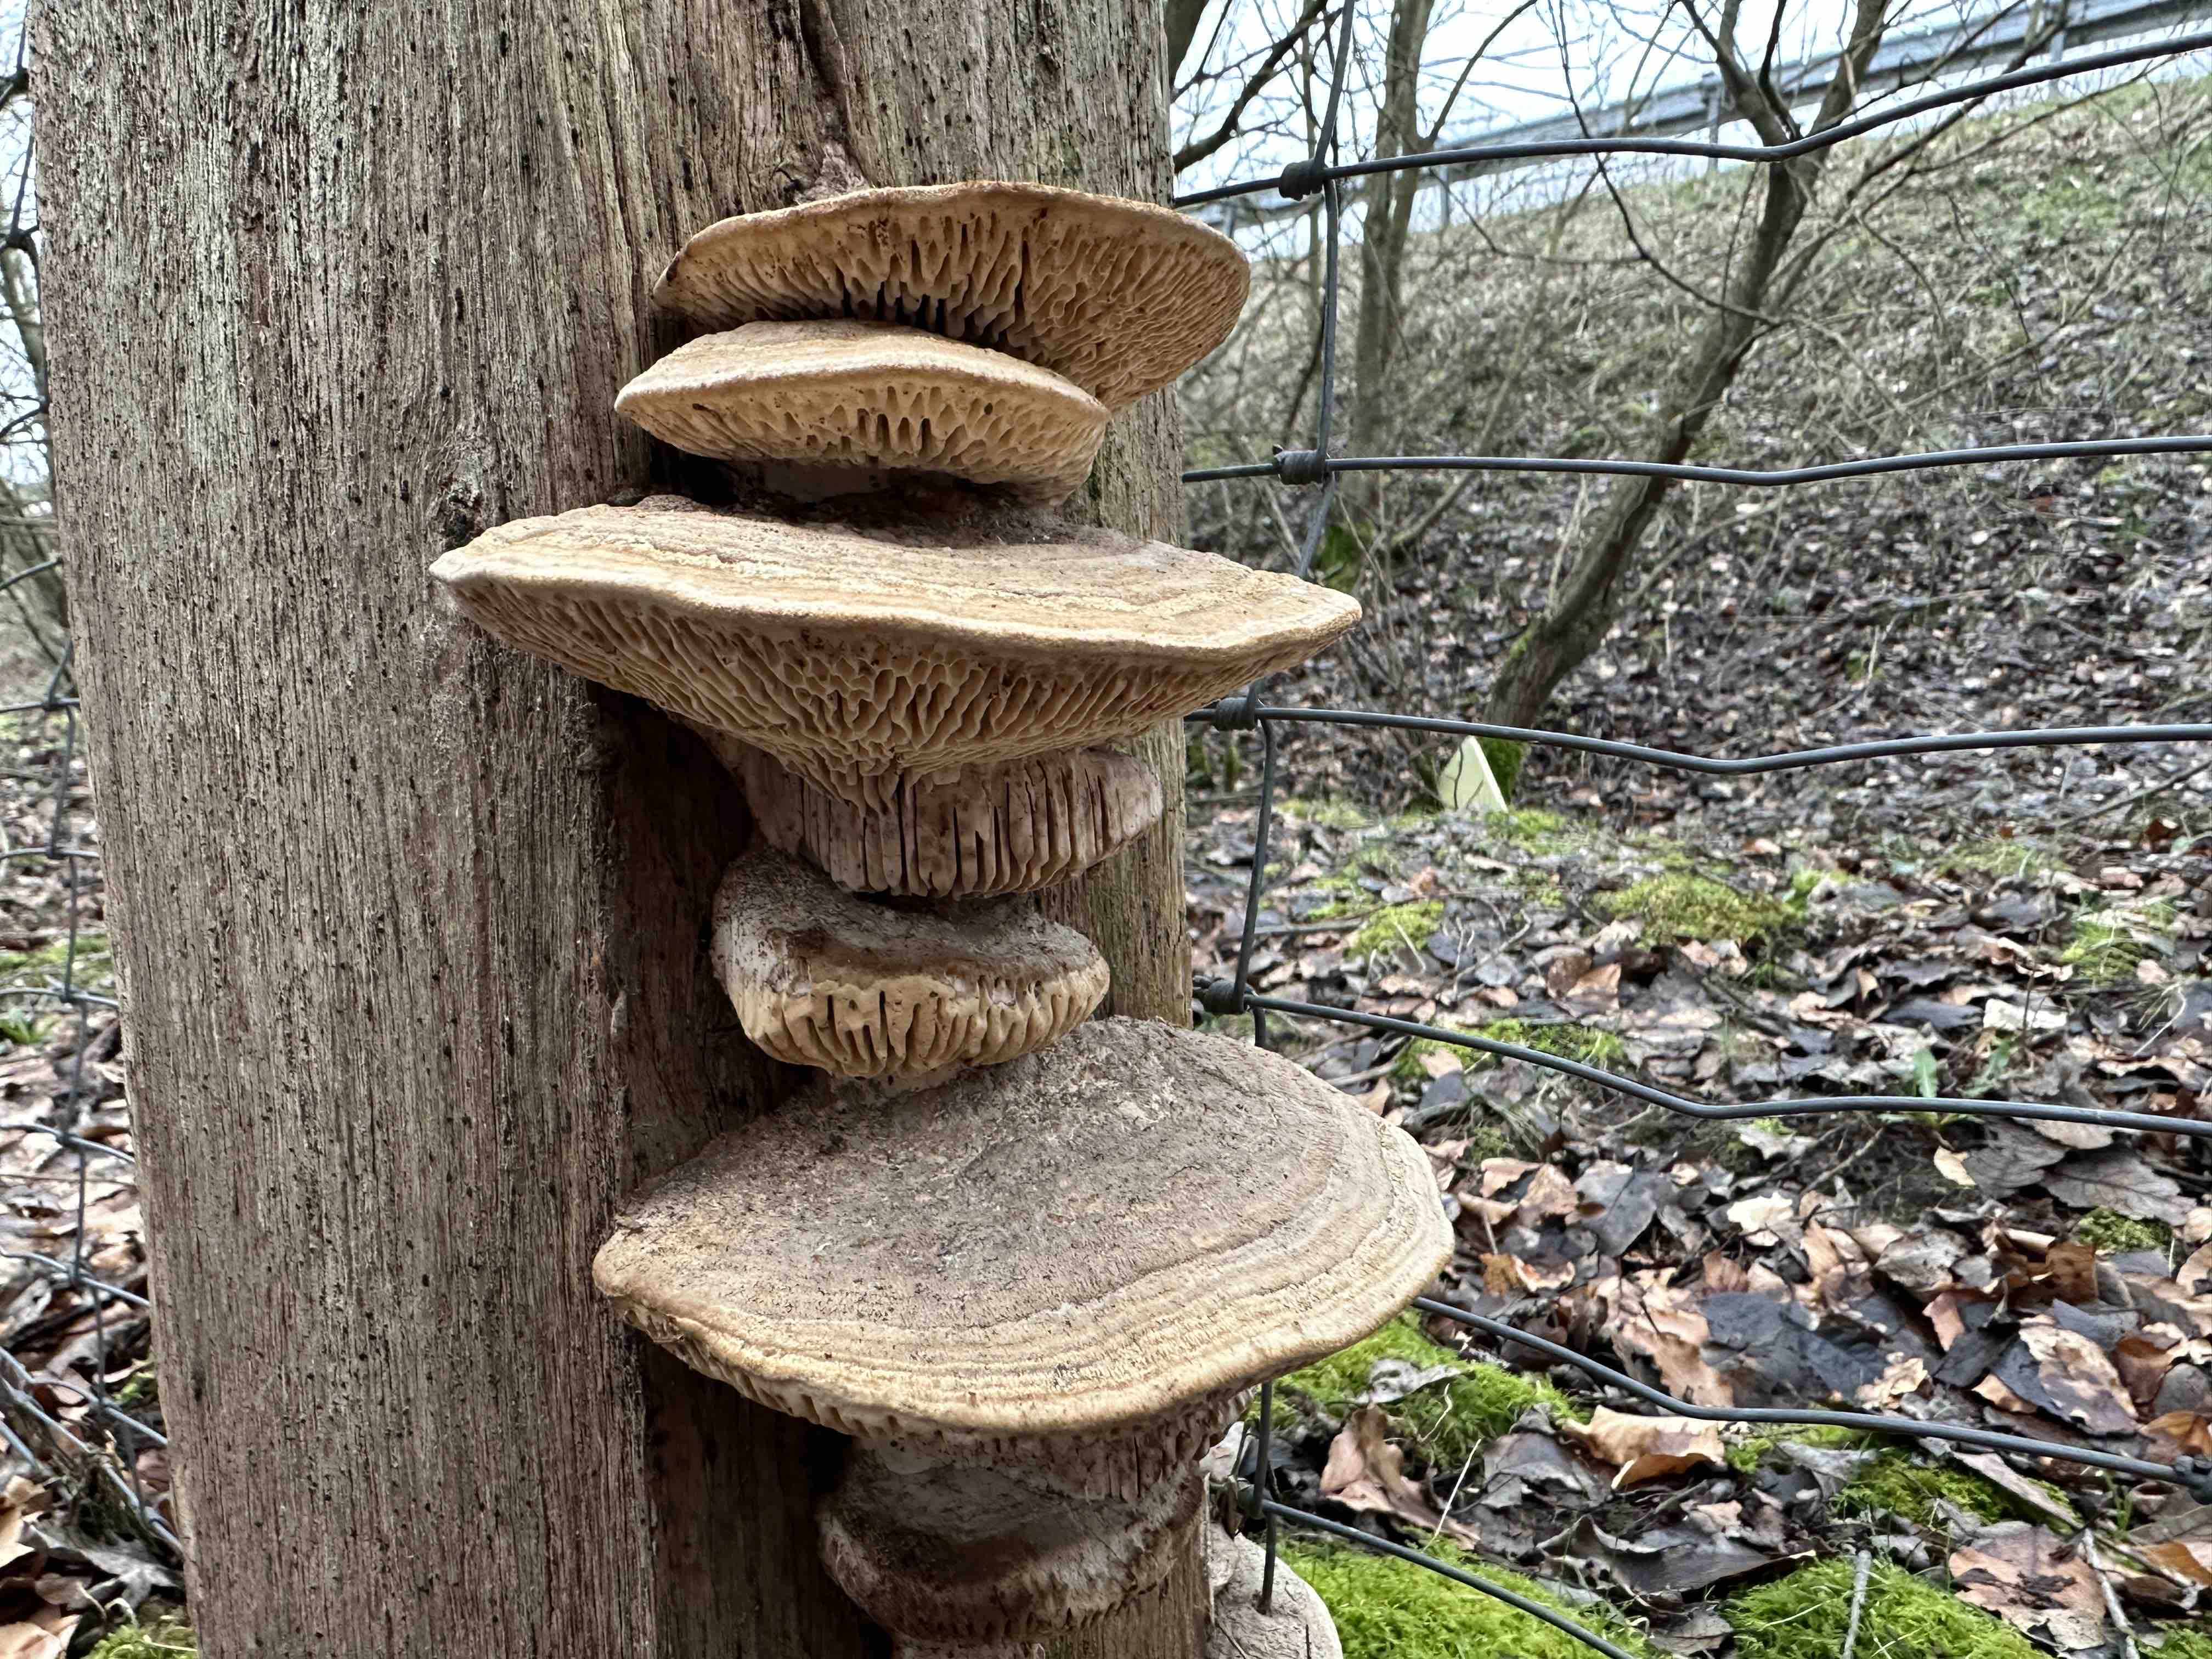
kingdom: Fungi
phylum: Basidiomycota
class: Agaricomycetes
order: Polyporales
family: Fomitopsidaceae
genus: Daedalea
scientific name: Daedalea quercina
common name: ege-labyrintsvamp
